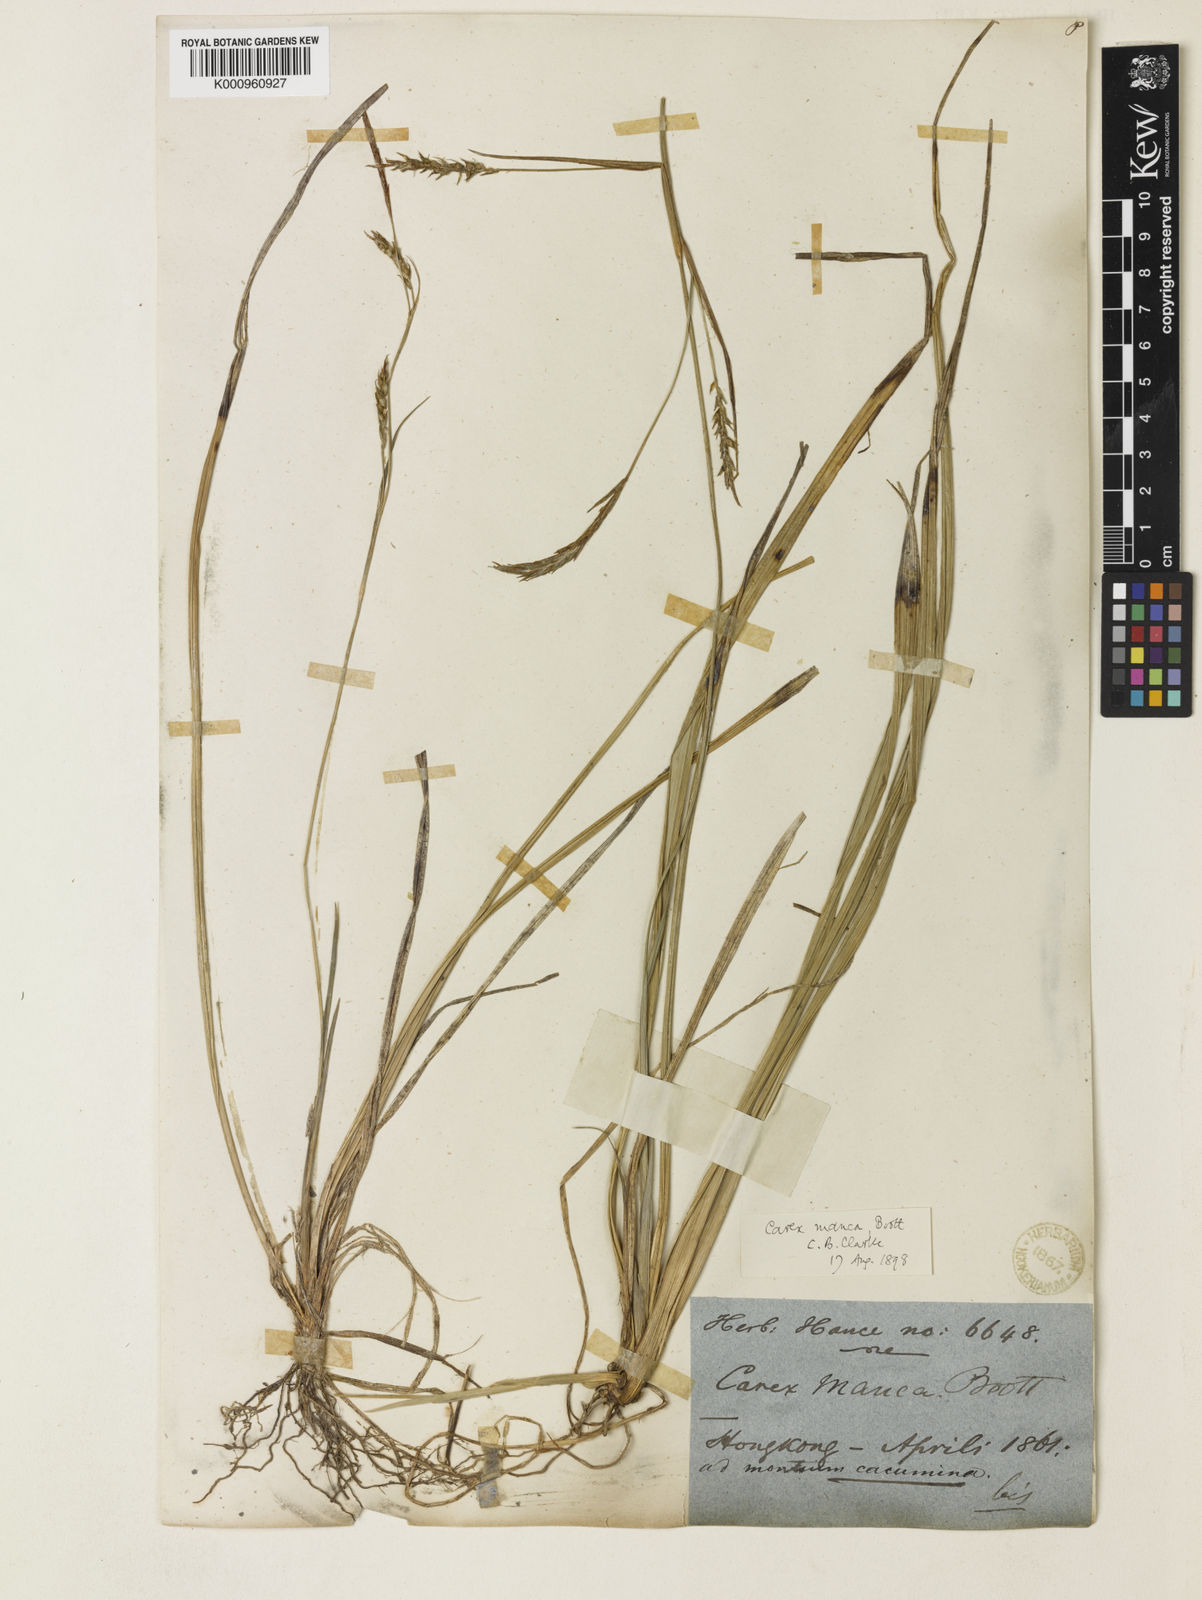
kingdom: Plantae
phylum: Tracheophyta
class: Liliopsida
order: Poales
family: Cyperaceae
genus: Carex
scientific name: Carex manca
